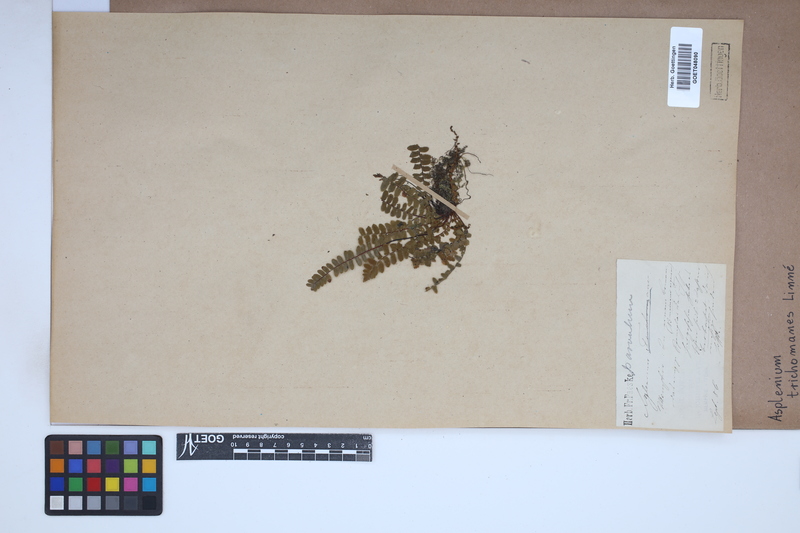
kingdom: Plantae
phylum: Tracheophyta
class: Polypodiopsida
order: Polypodiales
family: Aspleniaceae
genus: Asplenium
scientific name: Asplenium trichomanes
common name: Maidenhair spleenwort
